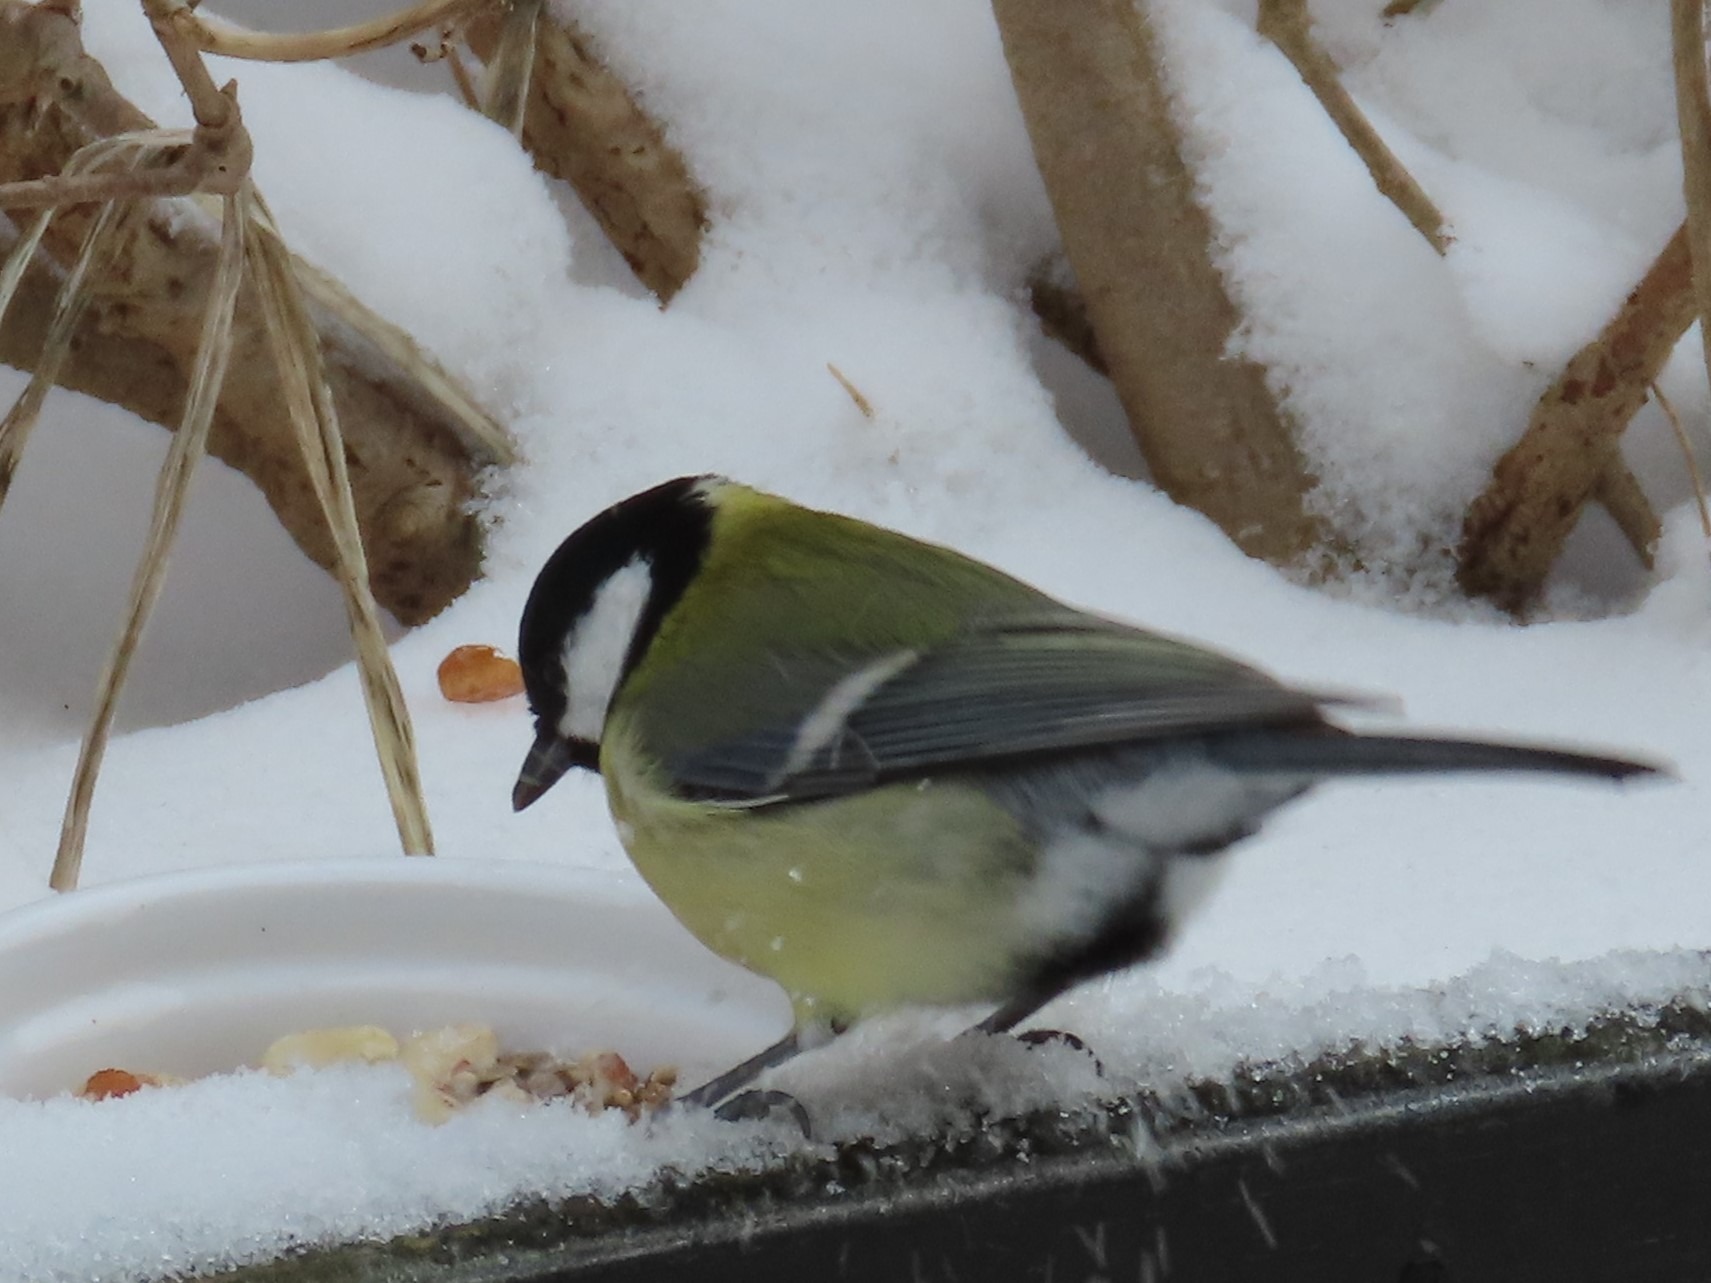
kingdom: Animalia
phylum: Chordata
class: Aves
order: Passeriformes
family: Paridae
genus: Parus
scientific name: Parus major
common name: Musvit
